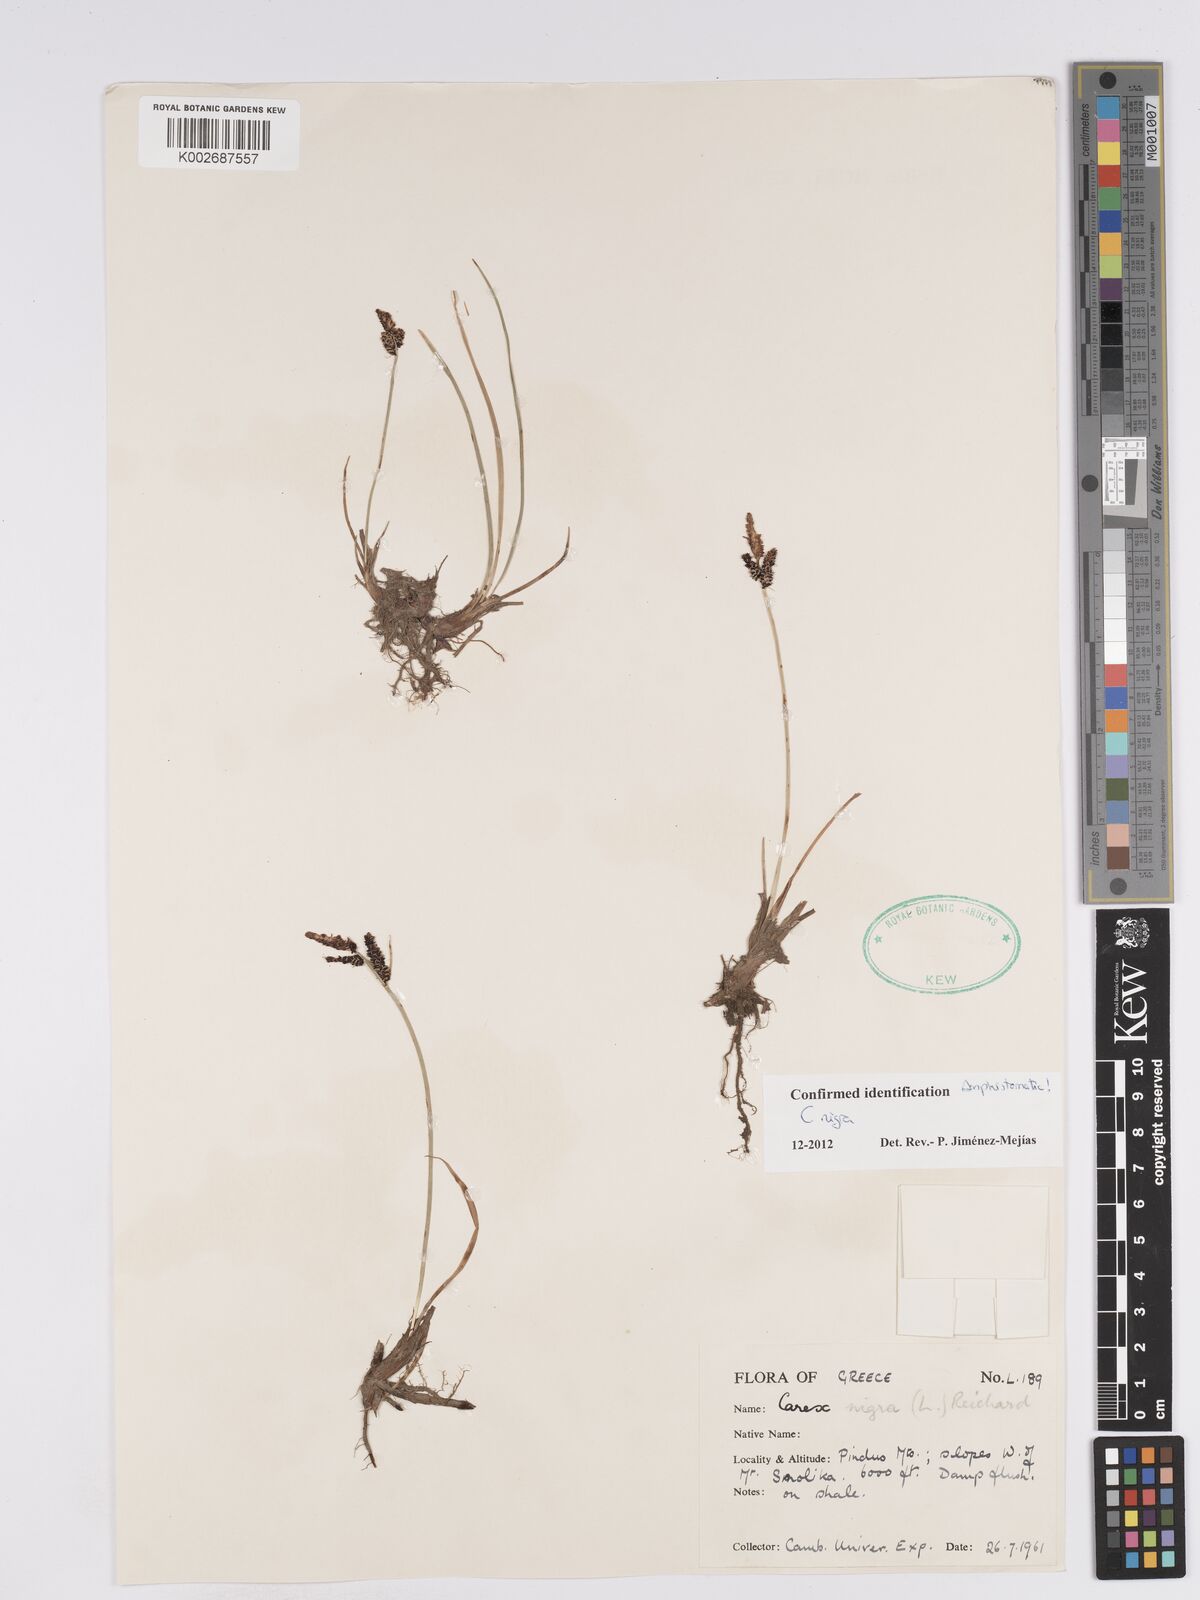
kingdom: Plantae
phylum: Tracheophyta
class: Liliopsida
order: Poales
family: Cyperaceae
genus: Carex
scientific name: Carex nigra
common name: Common sedge
